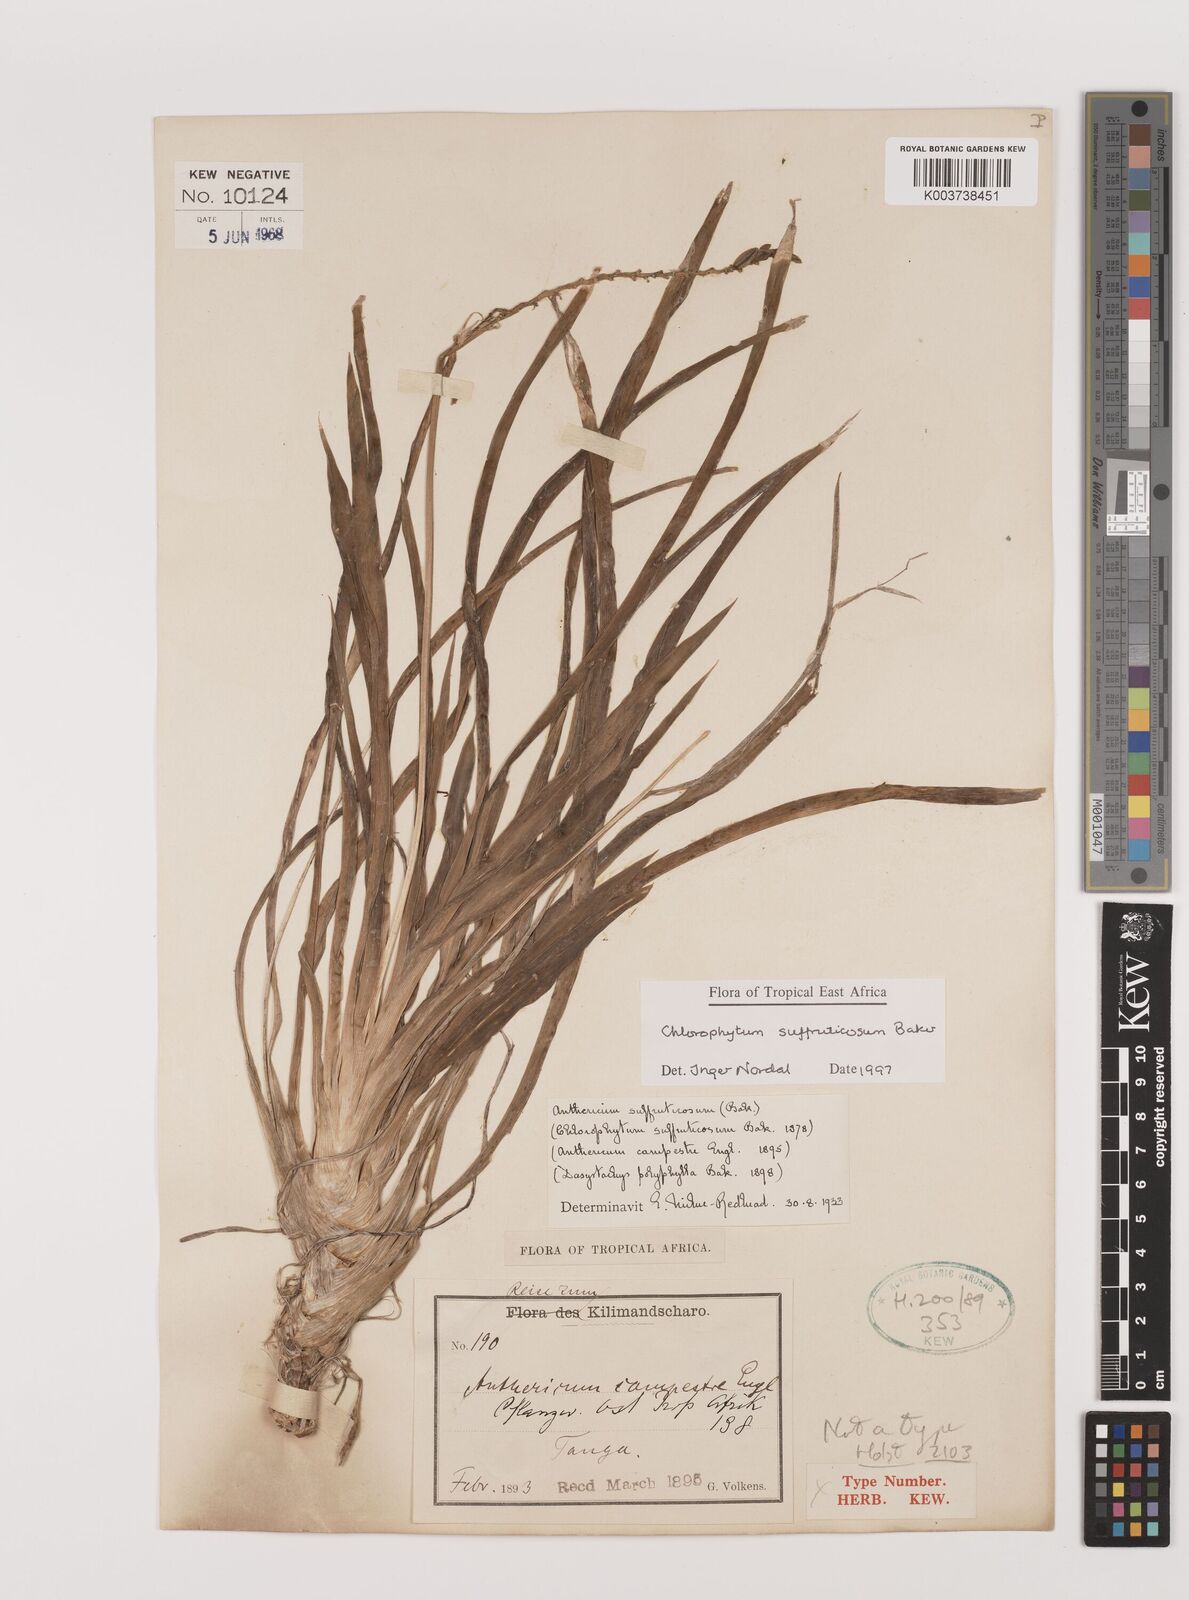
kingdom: Plantae
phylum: Tracheophyta
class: Liliopsida
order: Asparagales
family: Asparagaceae
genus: Chlorophytum
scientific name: Chlorophytum suffruticosum
